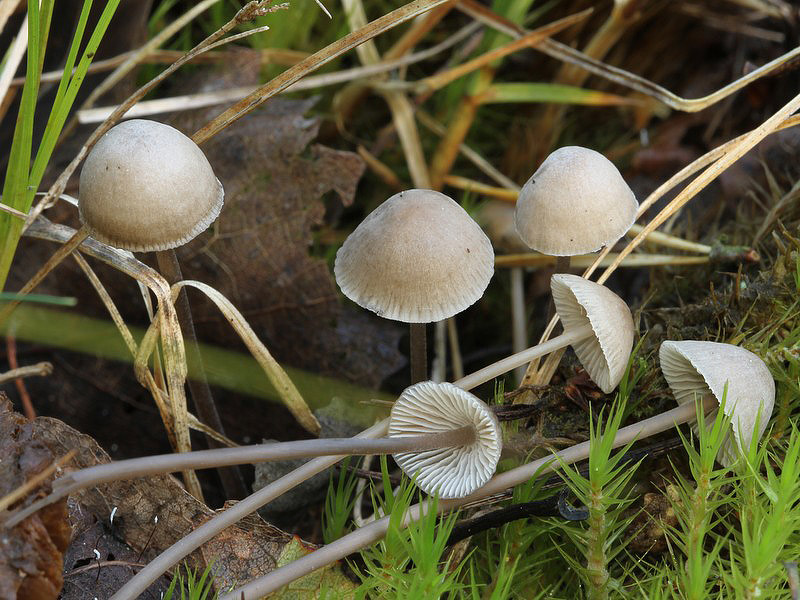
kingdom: Fungi
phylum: Basidiomycota
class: Agaricomycetes
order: Agaricales
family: Mycenaceae
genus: Mycena
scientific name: Mycena aetites
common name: plæne-huesvamp
